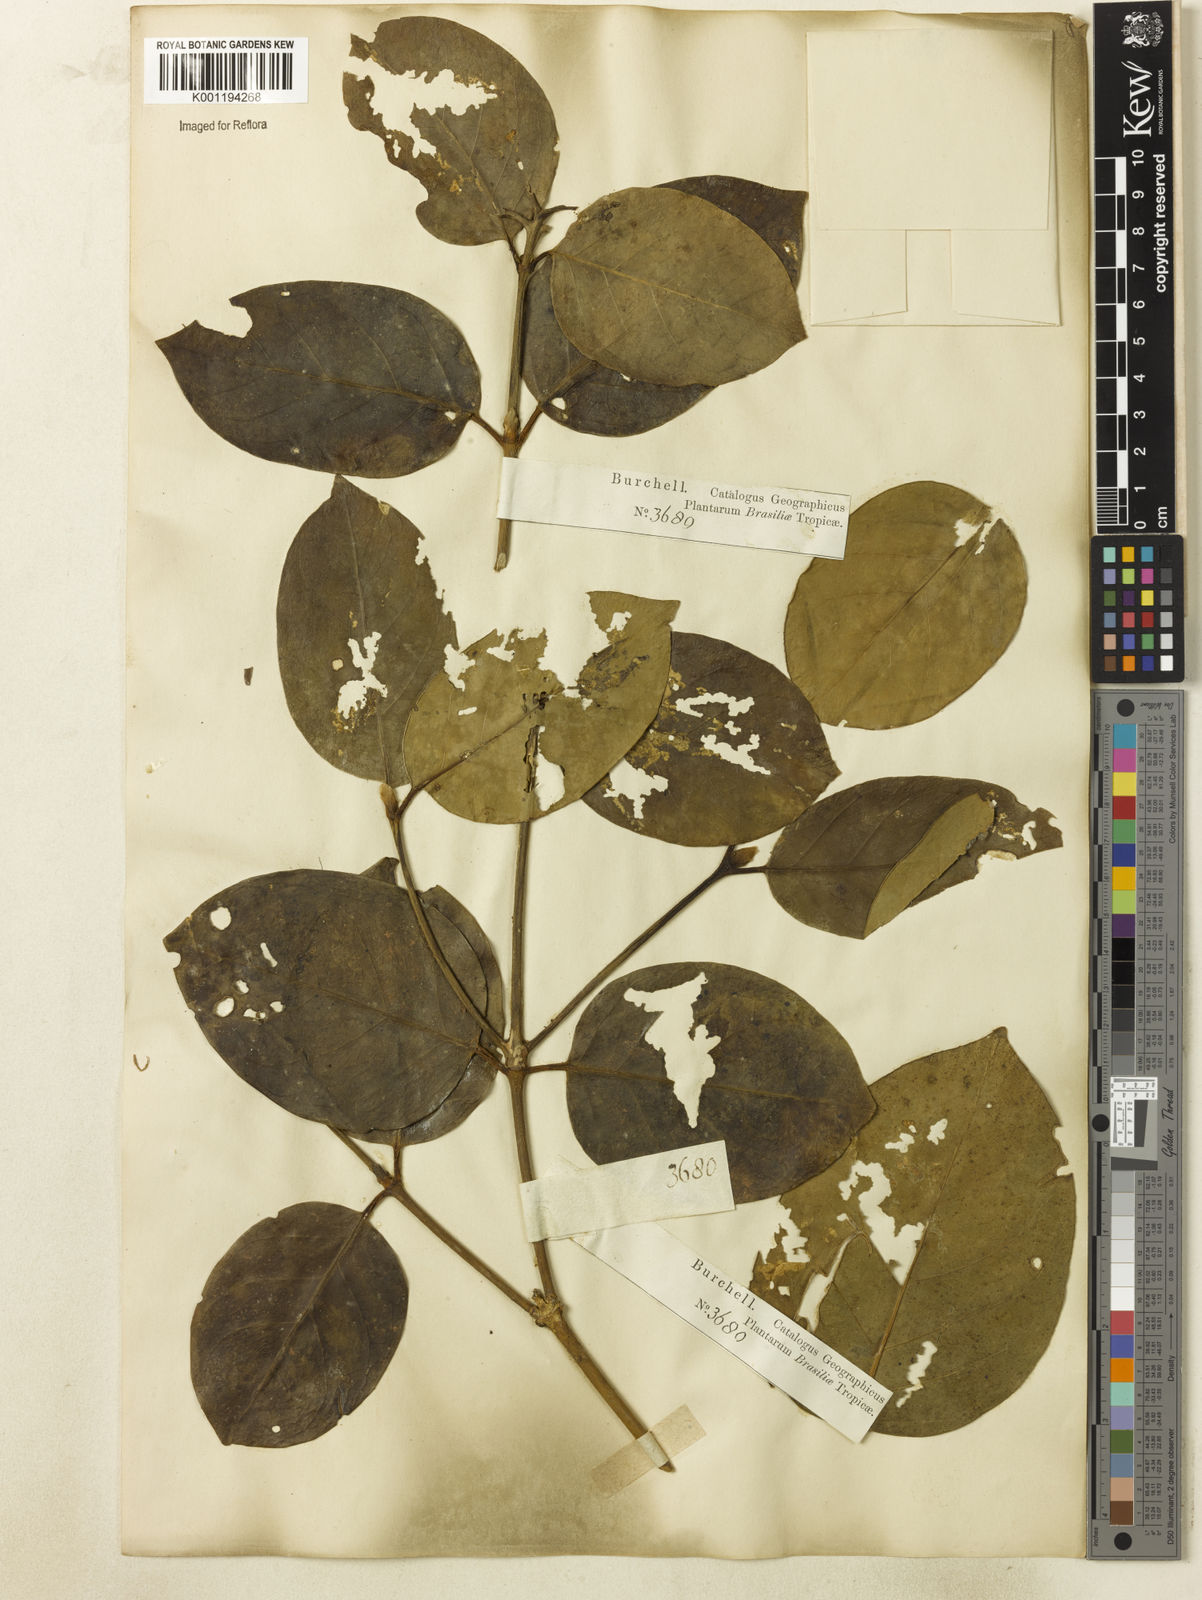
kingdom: Plantae
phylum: Tracheophyta
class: Magnoliopsida
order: Gentianales
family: Rubiaceae
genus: Posoqueria
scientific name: Posoqueria latifolia
